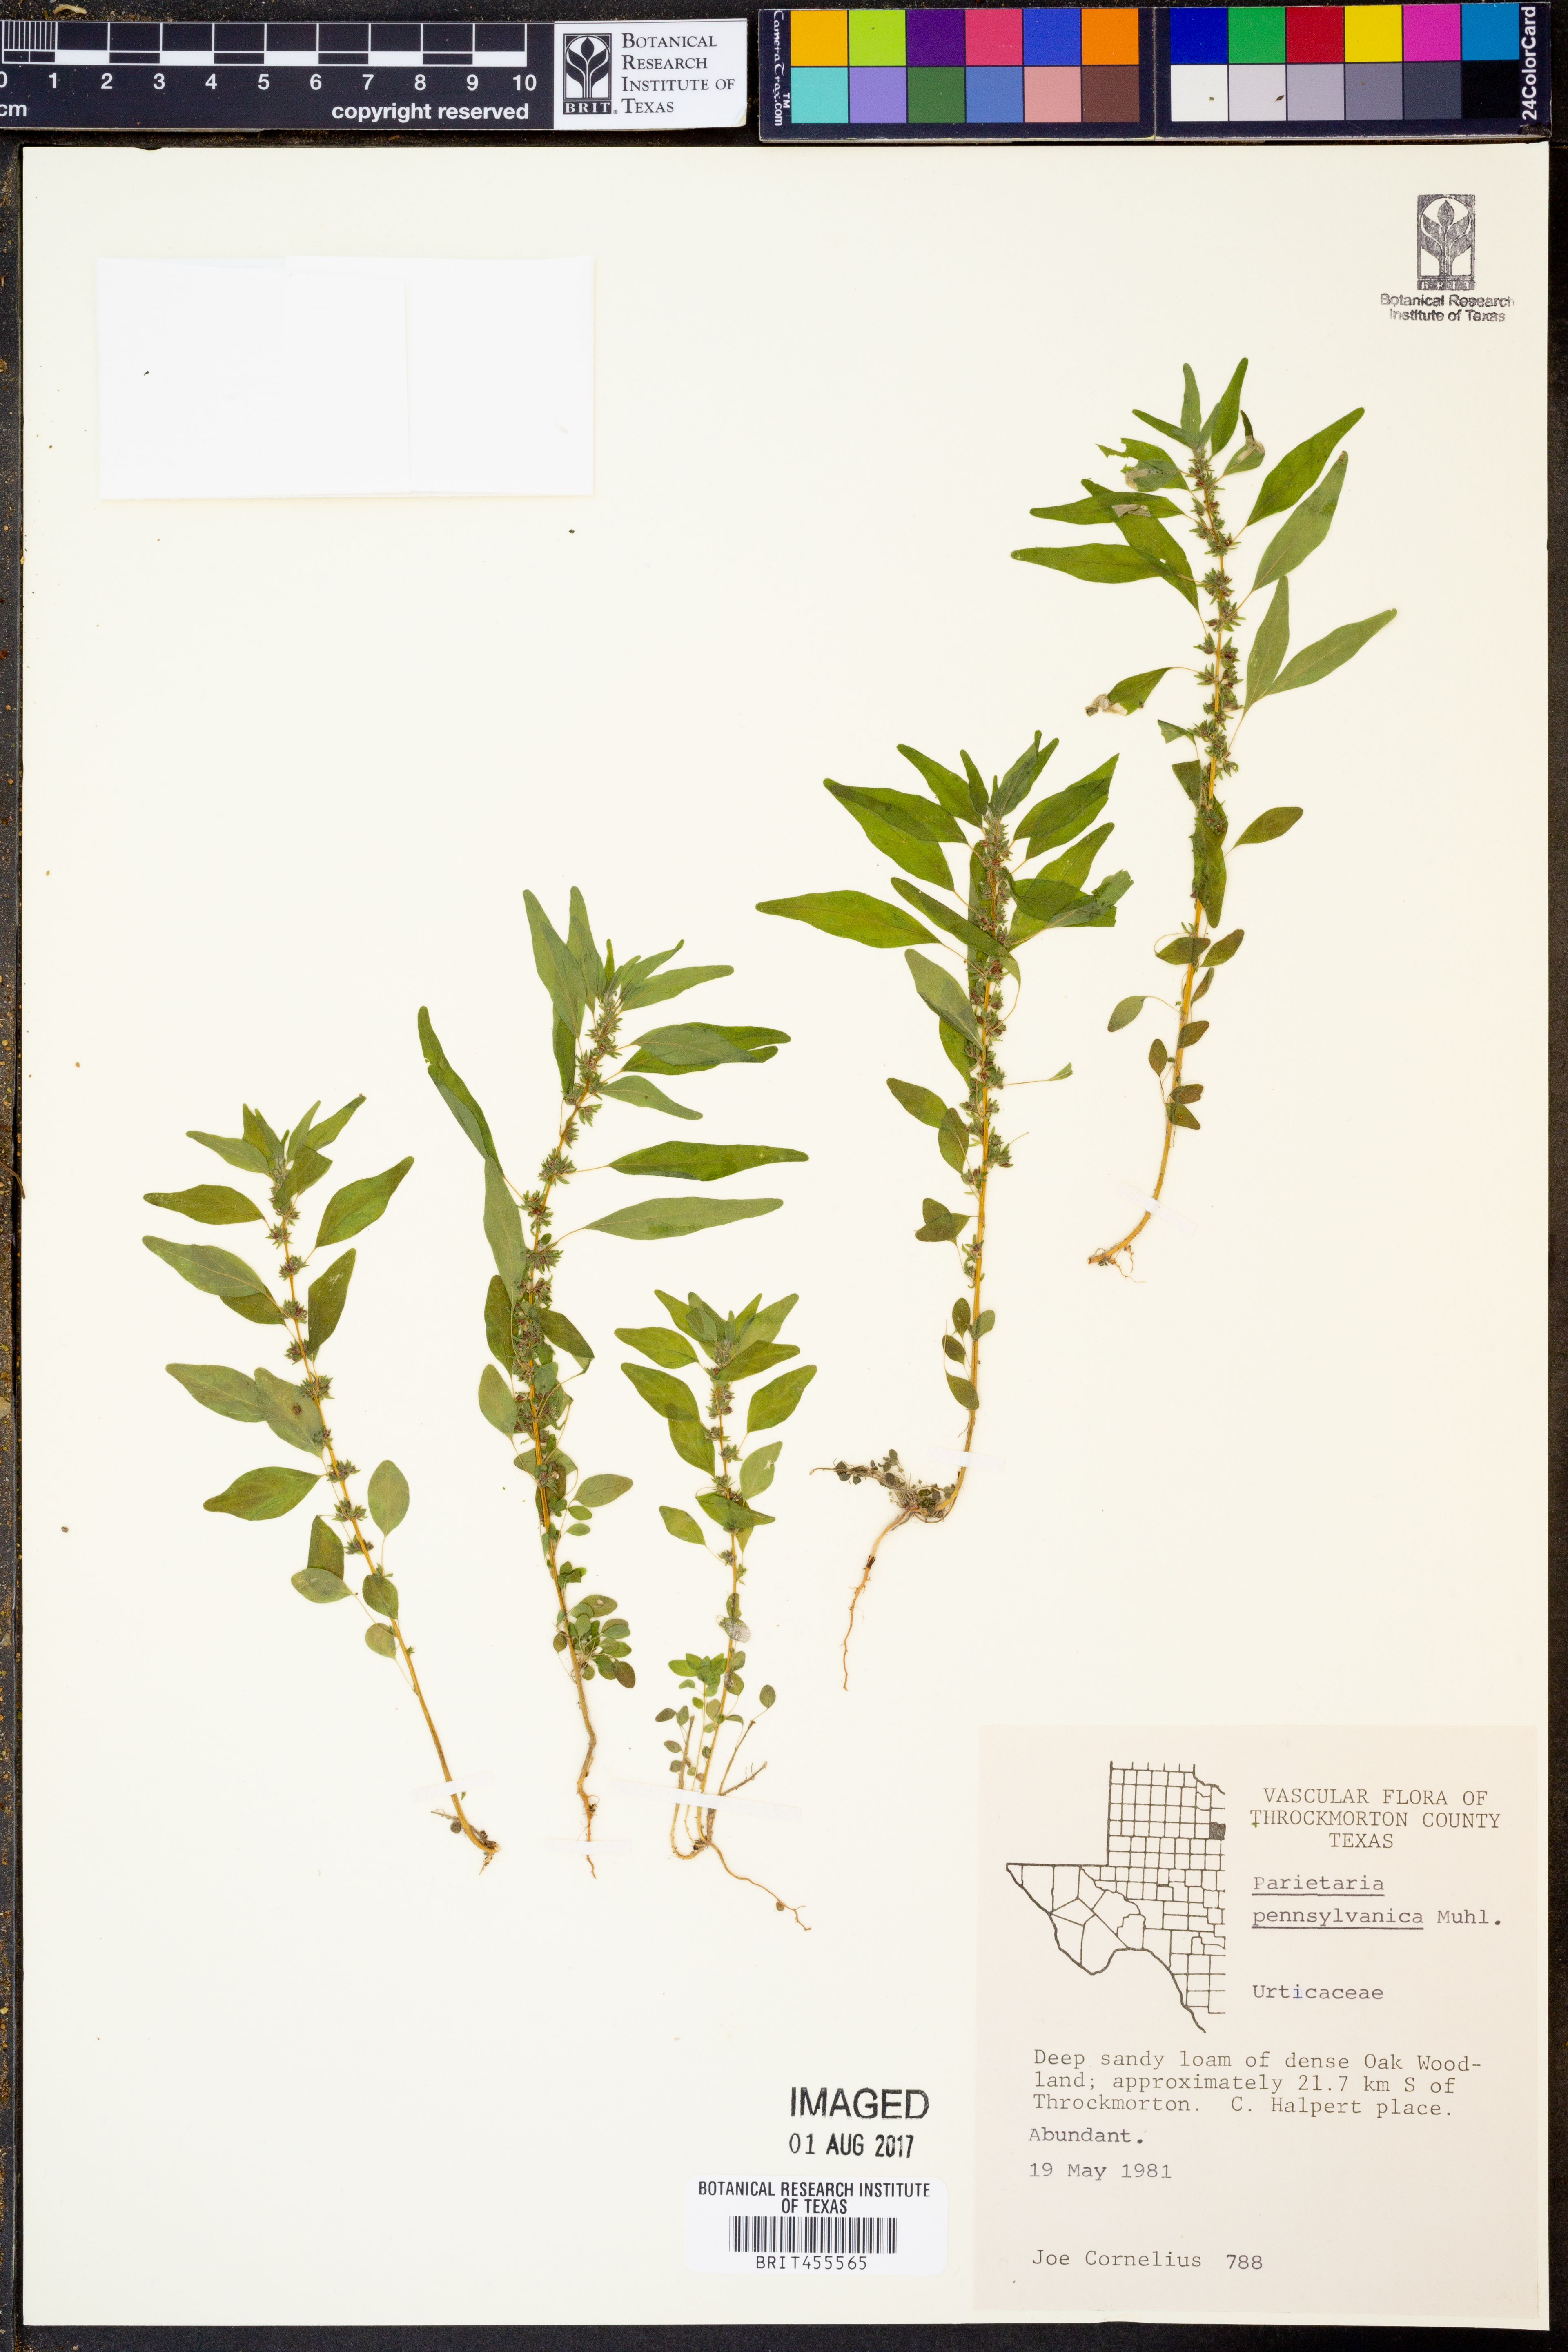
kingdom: Plantae
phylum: Tracheophyta
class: Magnoliopsida
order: Rosales
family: Urticaceae
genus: Parietaria
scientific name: Parietaria pensylvanica
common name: Pennsylvania pellitory
